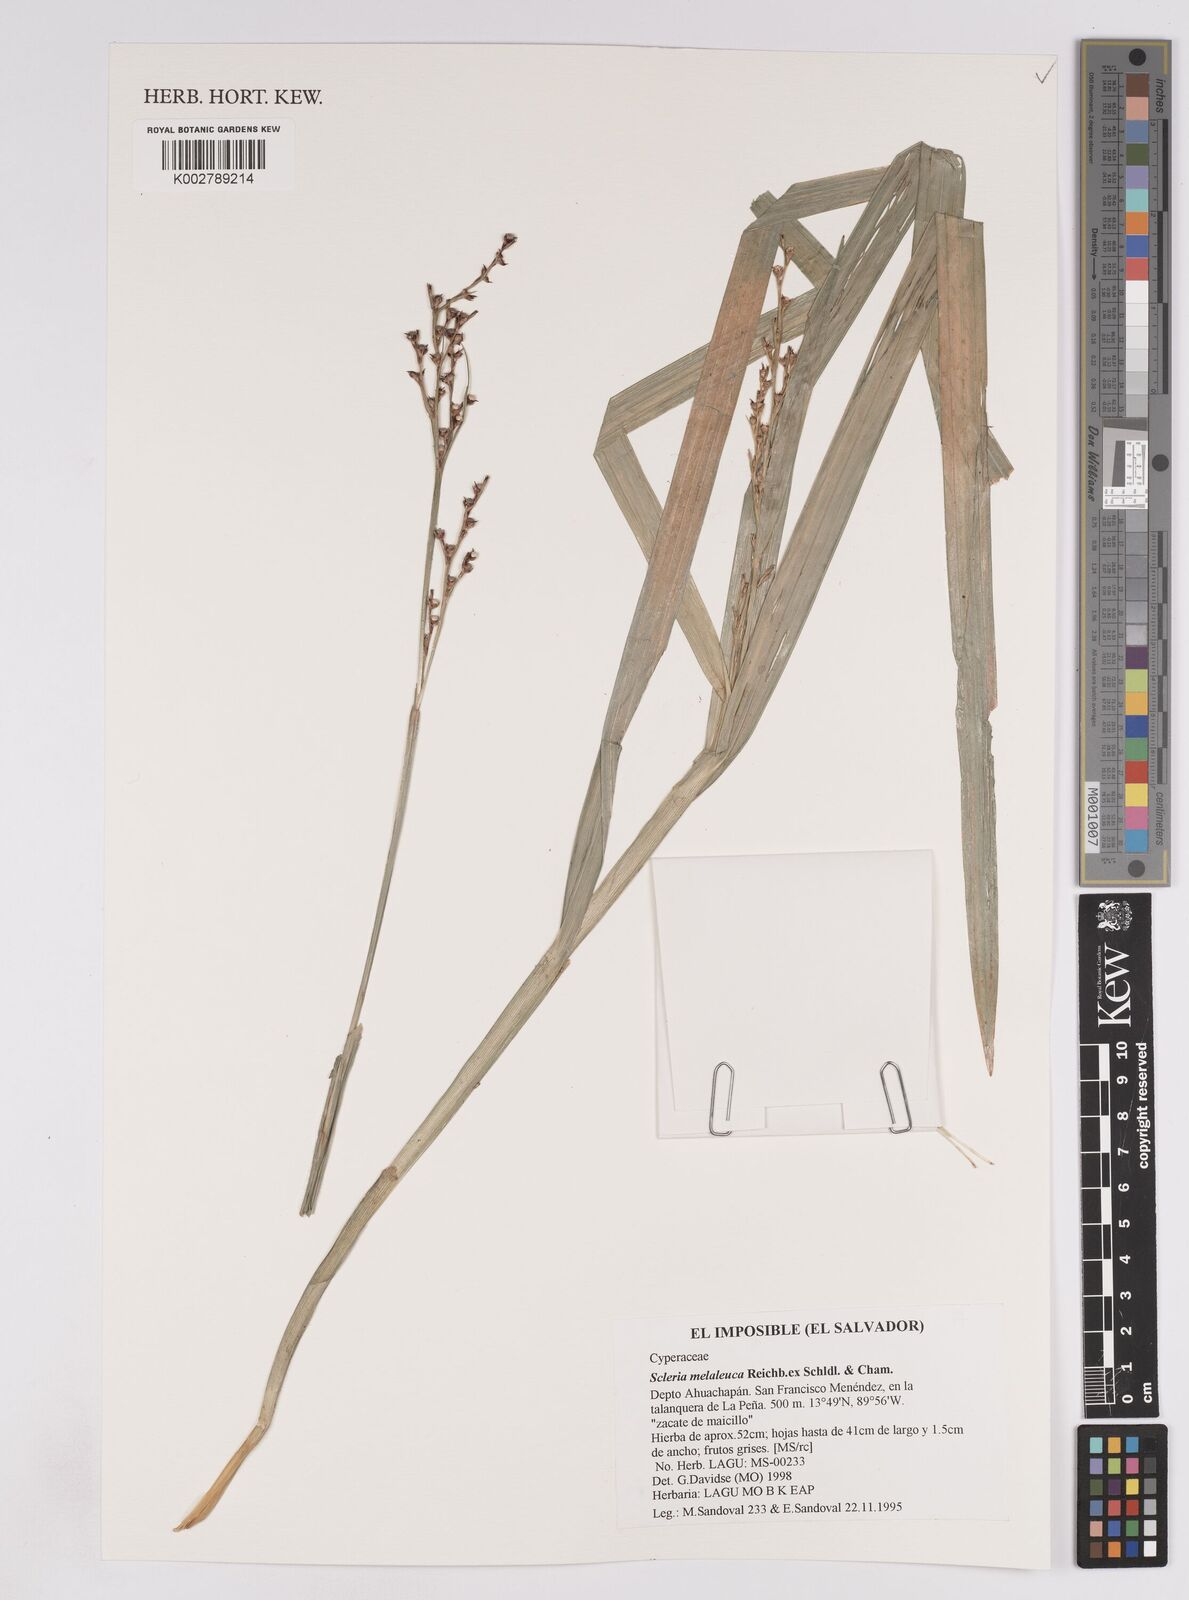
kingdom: Plantae
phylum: Tracheophyta
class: Liliopsida
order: Poales
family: Cyperaceae
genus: Scleria
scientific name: Scleria gaertneri
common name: Cortadera blanca
